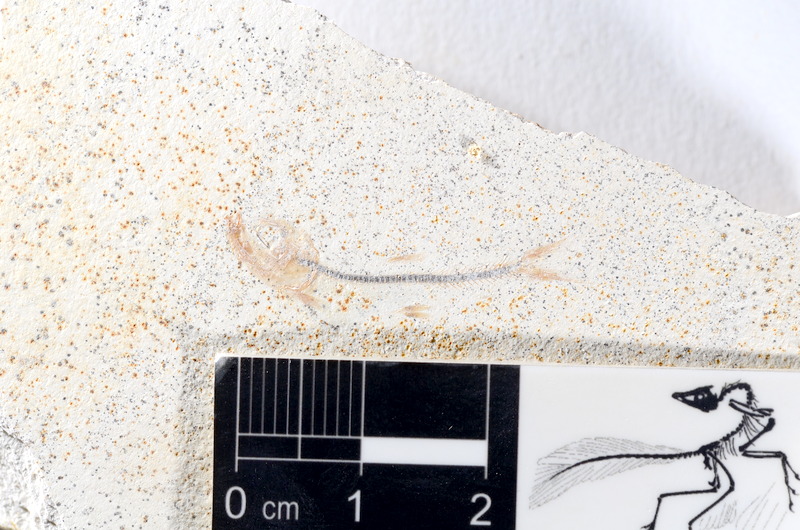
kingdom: Animalia
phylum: Chordata
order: Salmoniformes
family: Orthogonikleithridae
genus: Orthogonikleithrus
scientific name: Orthogonikleithrus hoelli
